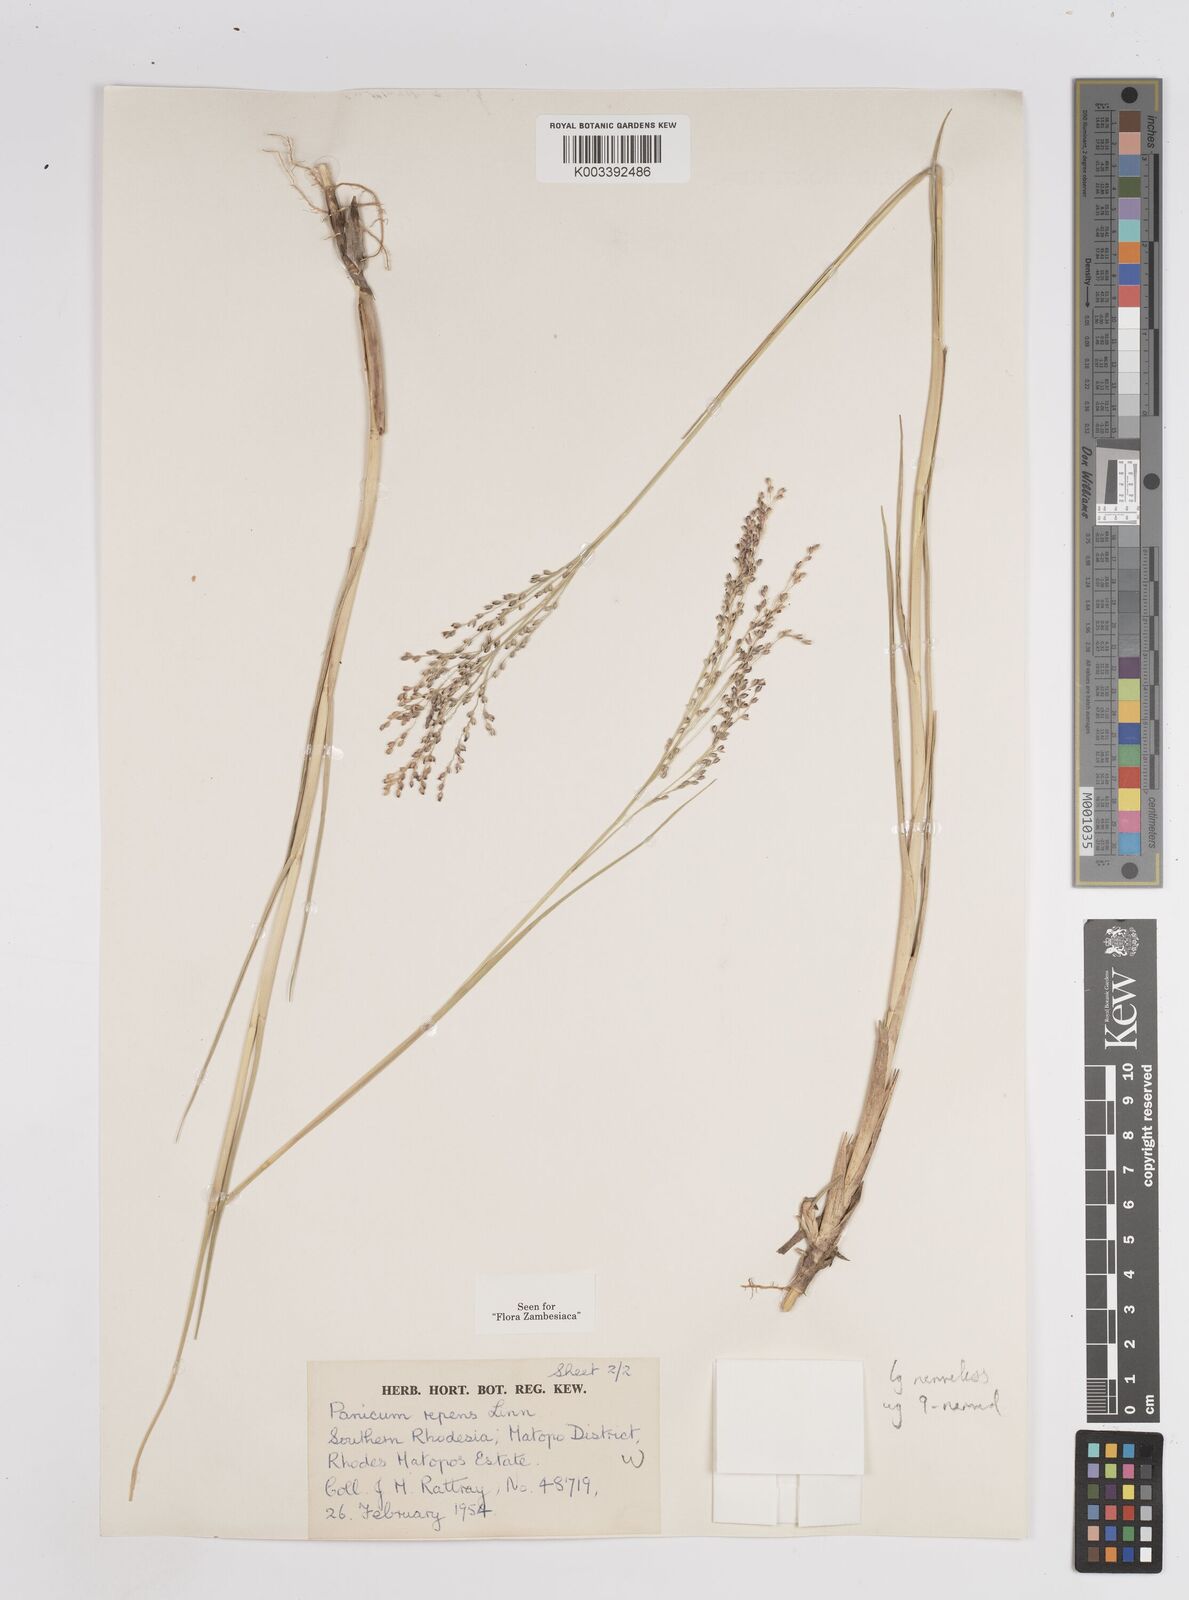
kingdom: Plantae
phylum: Tracheophyta
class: Liliopsida
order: Poales
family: Poaceae
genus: Panicum
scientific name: Panicum repens
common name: Torpedo grass
